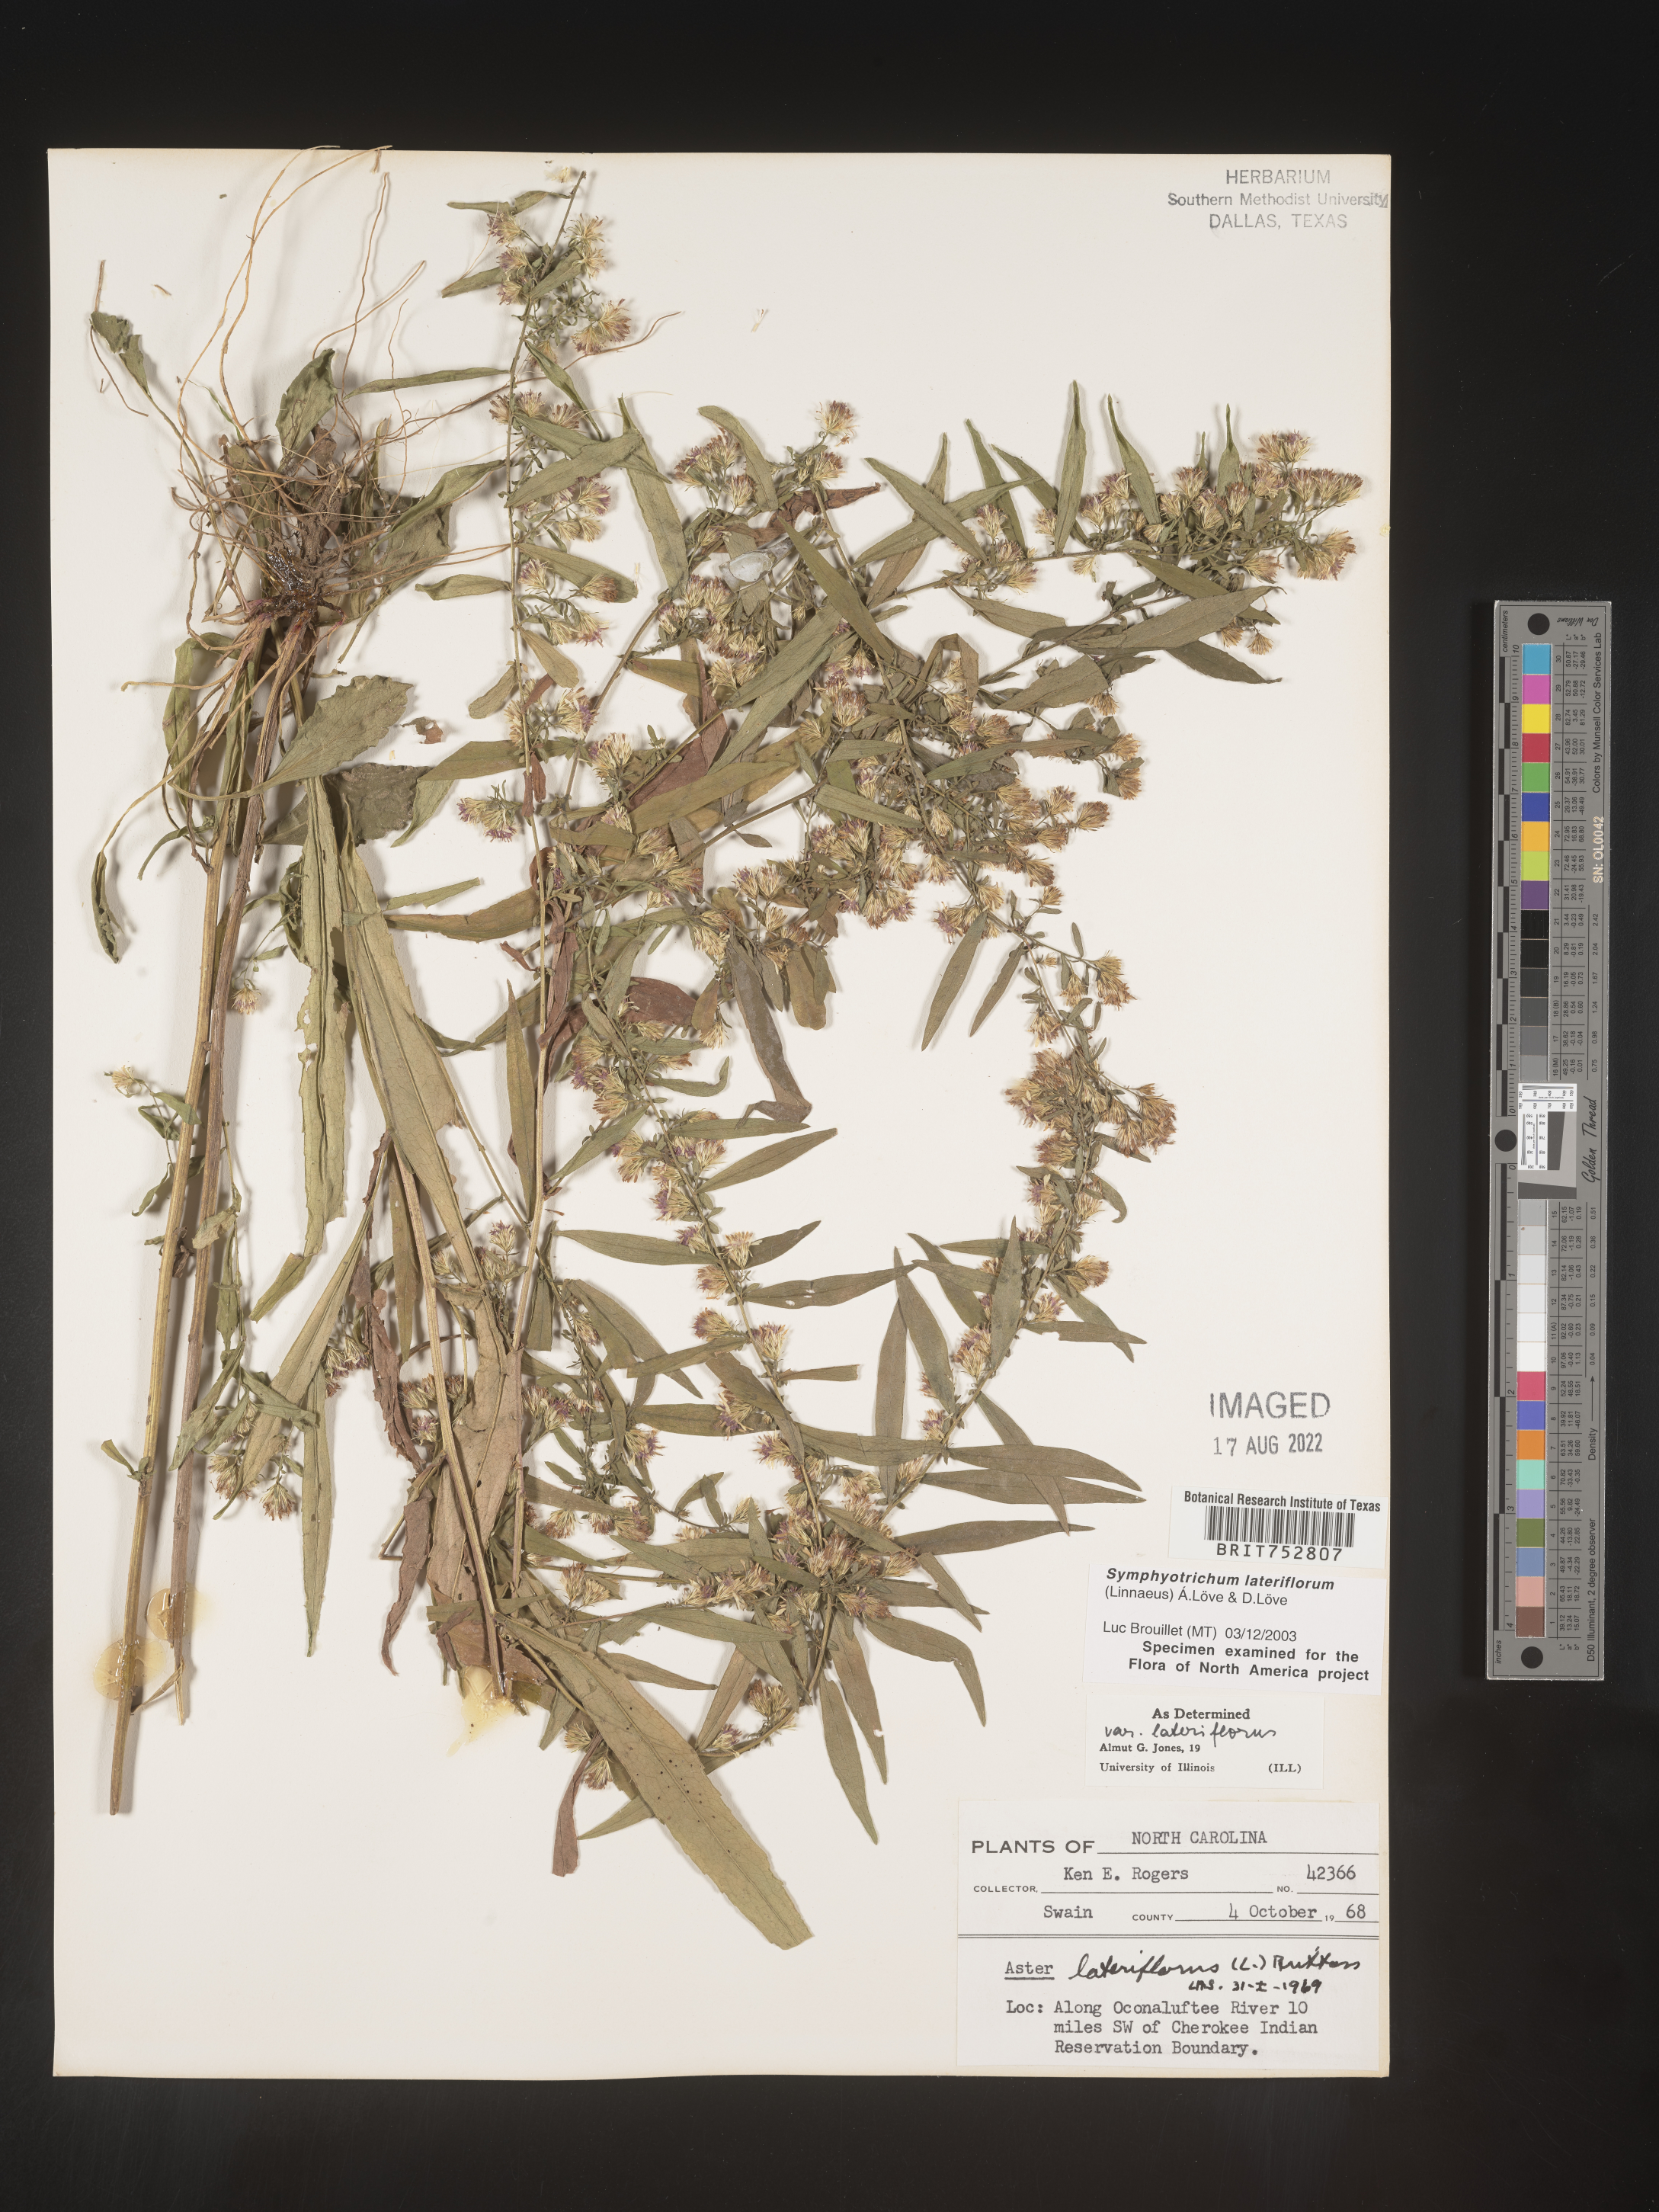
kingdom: Plantae
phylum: Tracheophyta
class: Magnoliopsida
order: Asterales
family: Asteraceae
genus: Symphyotrichum
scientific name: Symphyotrichum lateriflorum
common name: Calico aster
